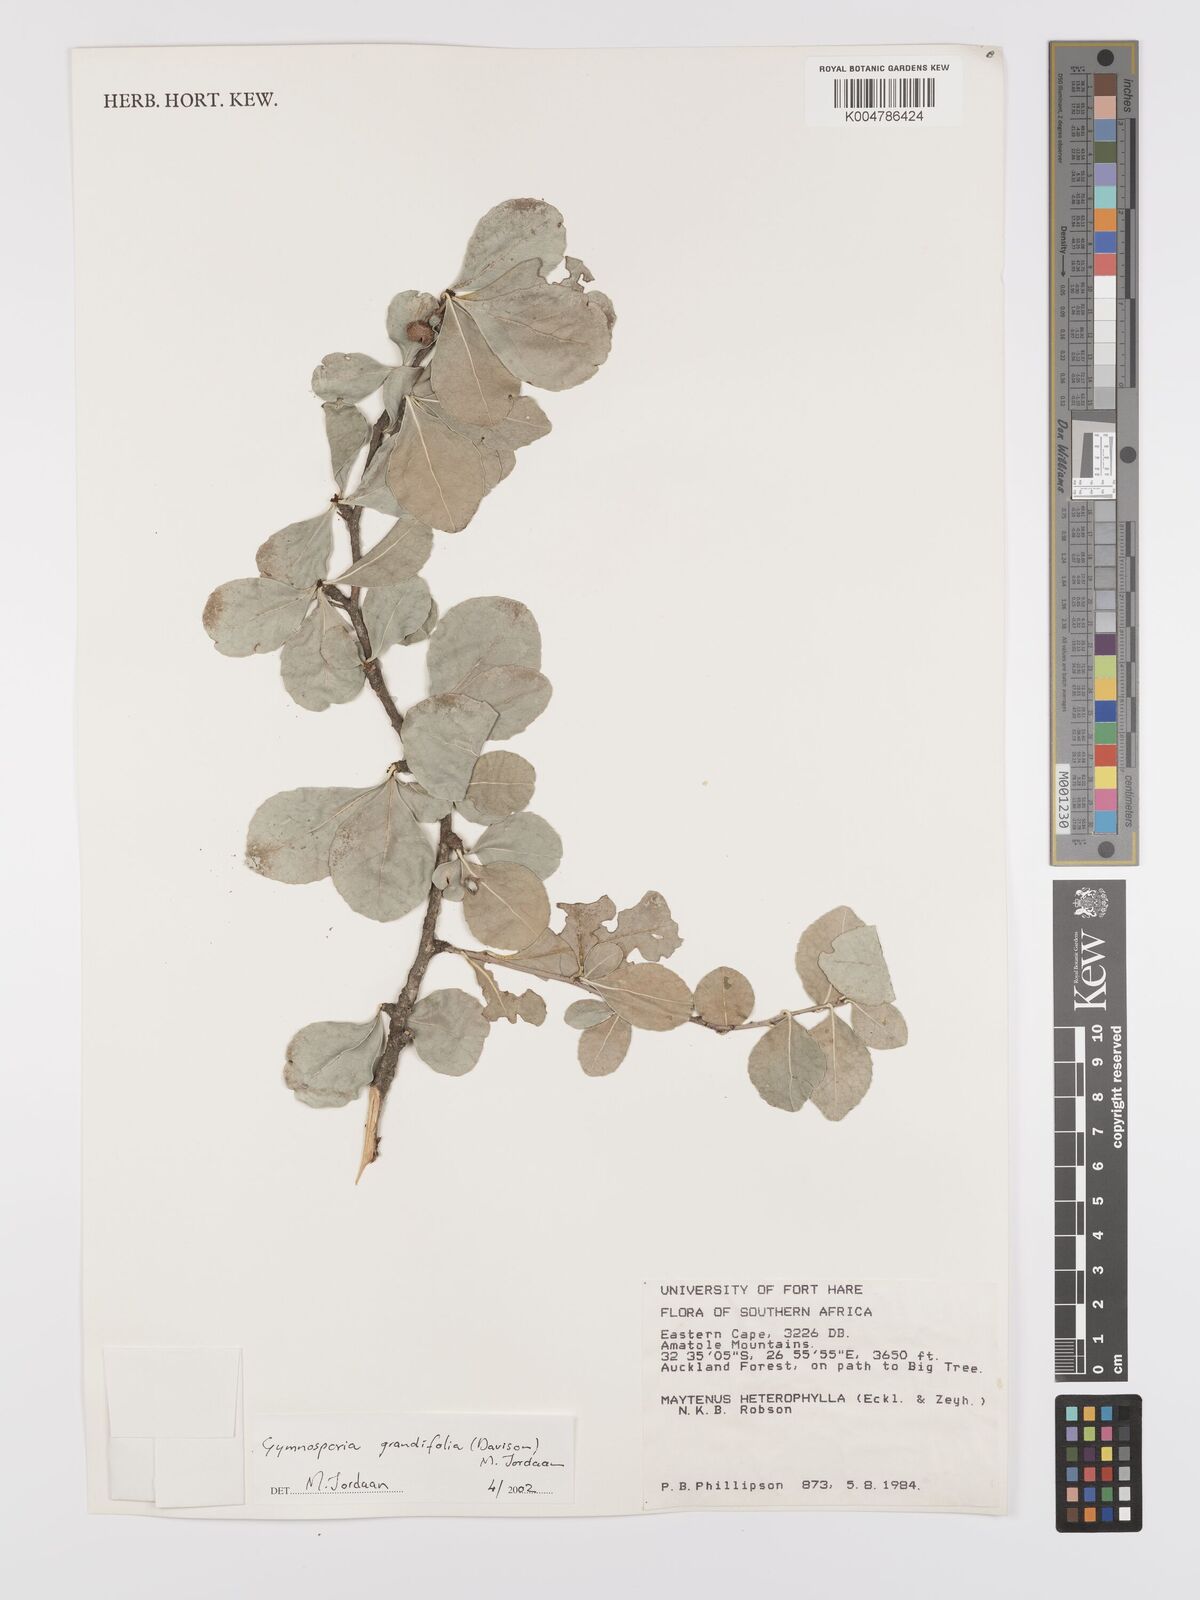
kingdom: Plantae
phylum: Tracheophyta
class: Magnoliopsida
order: Celastrales
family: Celastraceae
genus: Gymnosporia
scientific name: Gymnosporia grandifolia
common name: Large-fruited forest spike-thorn
